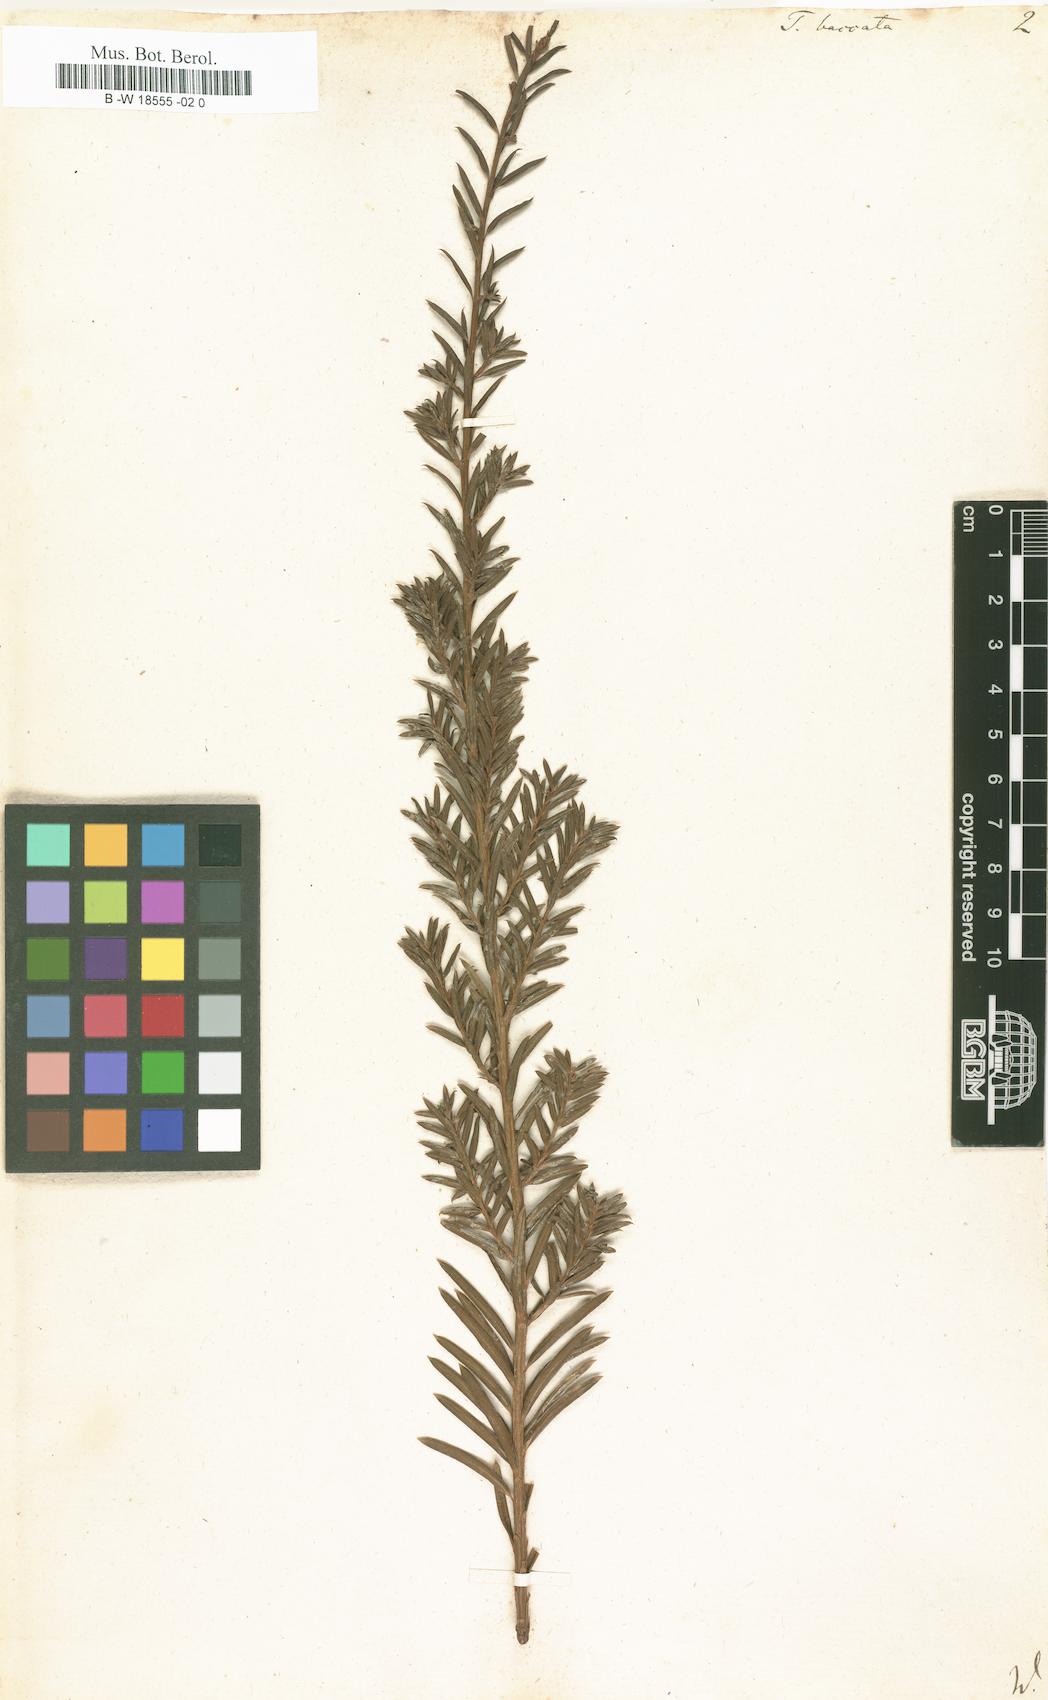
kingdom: Plantae
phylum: Tracheophyta
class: Pinopsida
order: Pinales
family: Taxaceae
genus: Taxus
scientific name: Taxus baccata
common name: Yew
